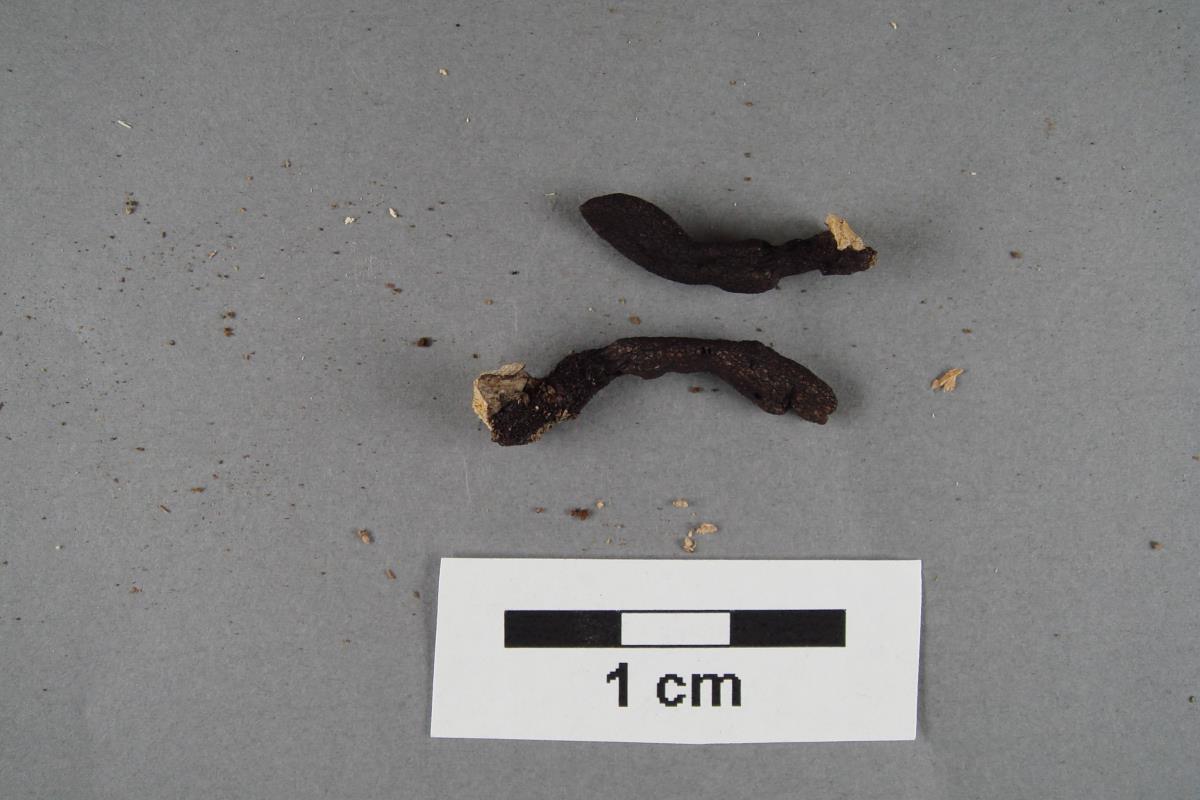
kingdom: Fungi
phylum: Ascomycota
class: Sordariomycetes
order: Xylariales
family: Xylariaceae
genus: Xylaria
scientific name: Xylaria castorea
